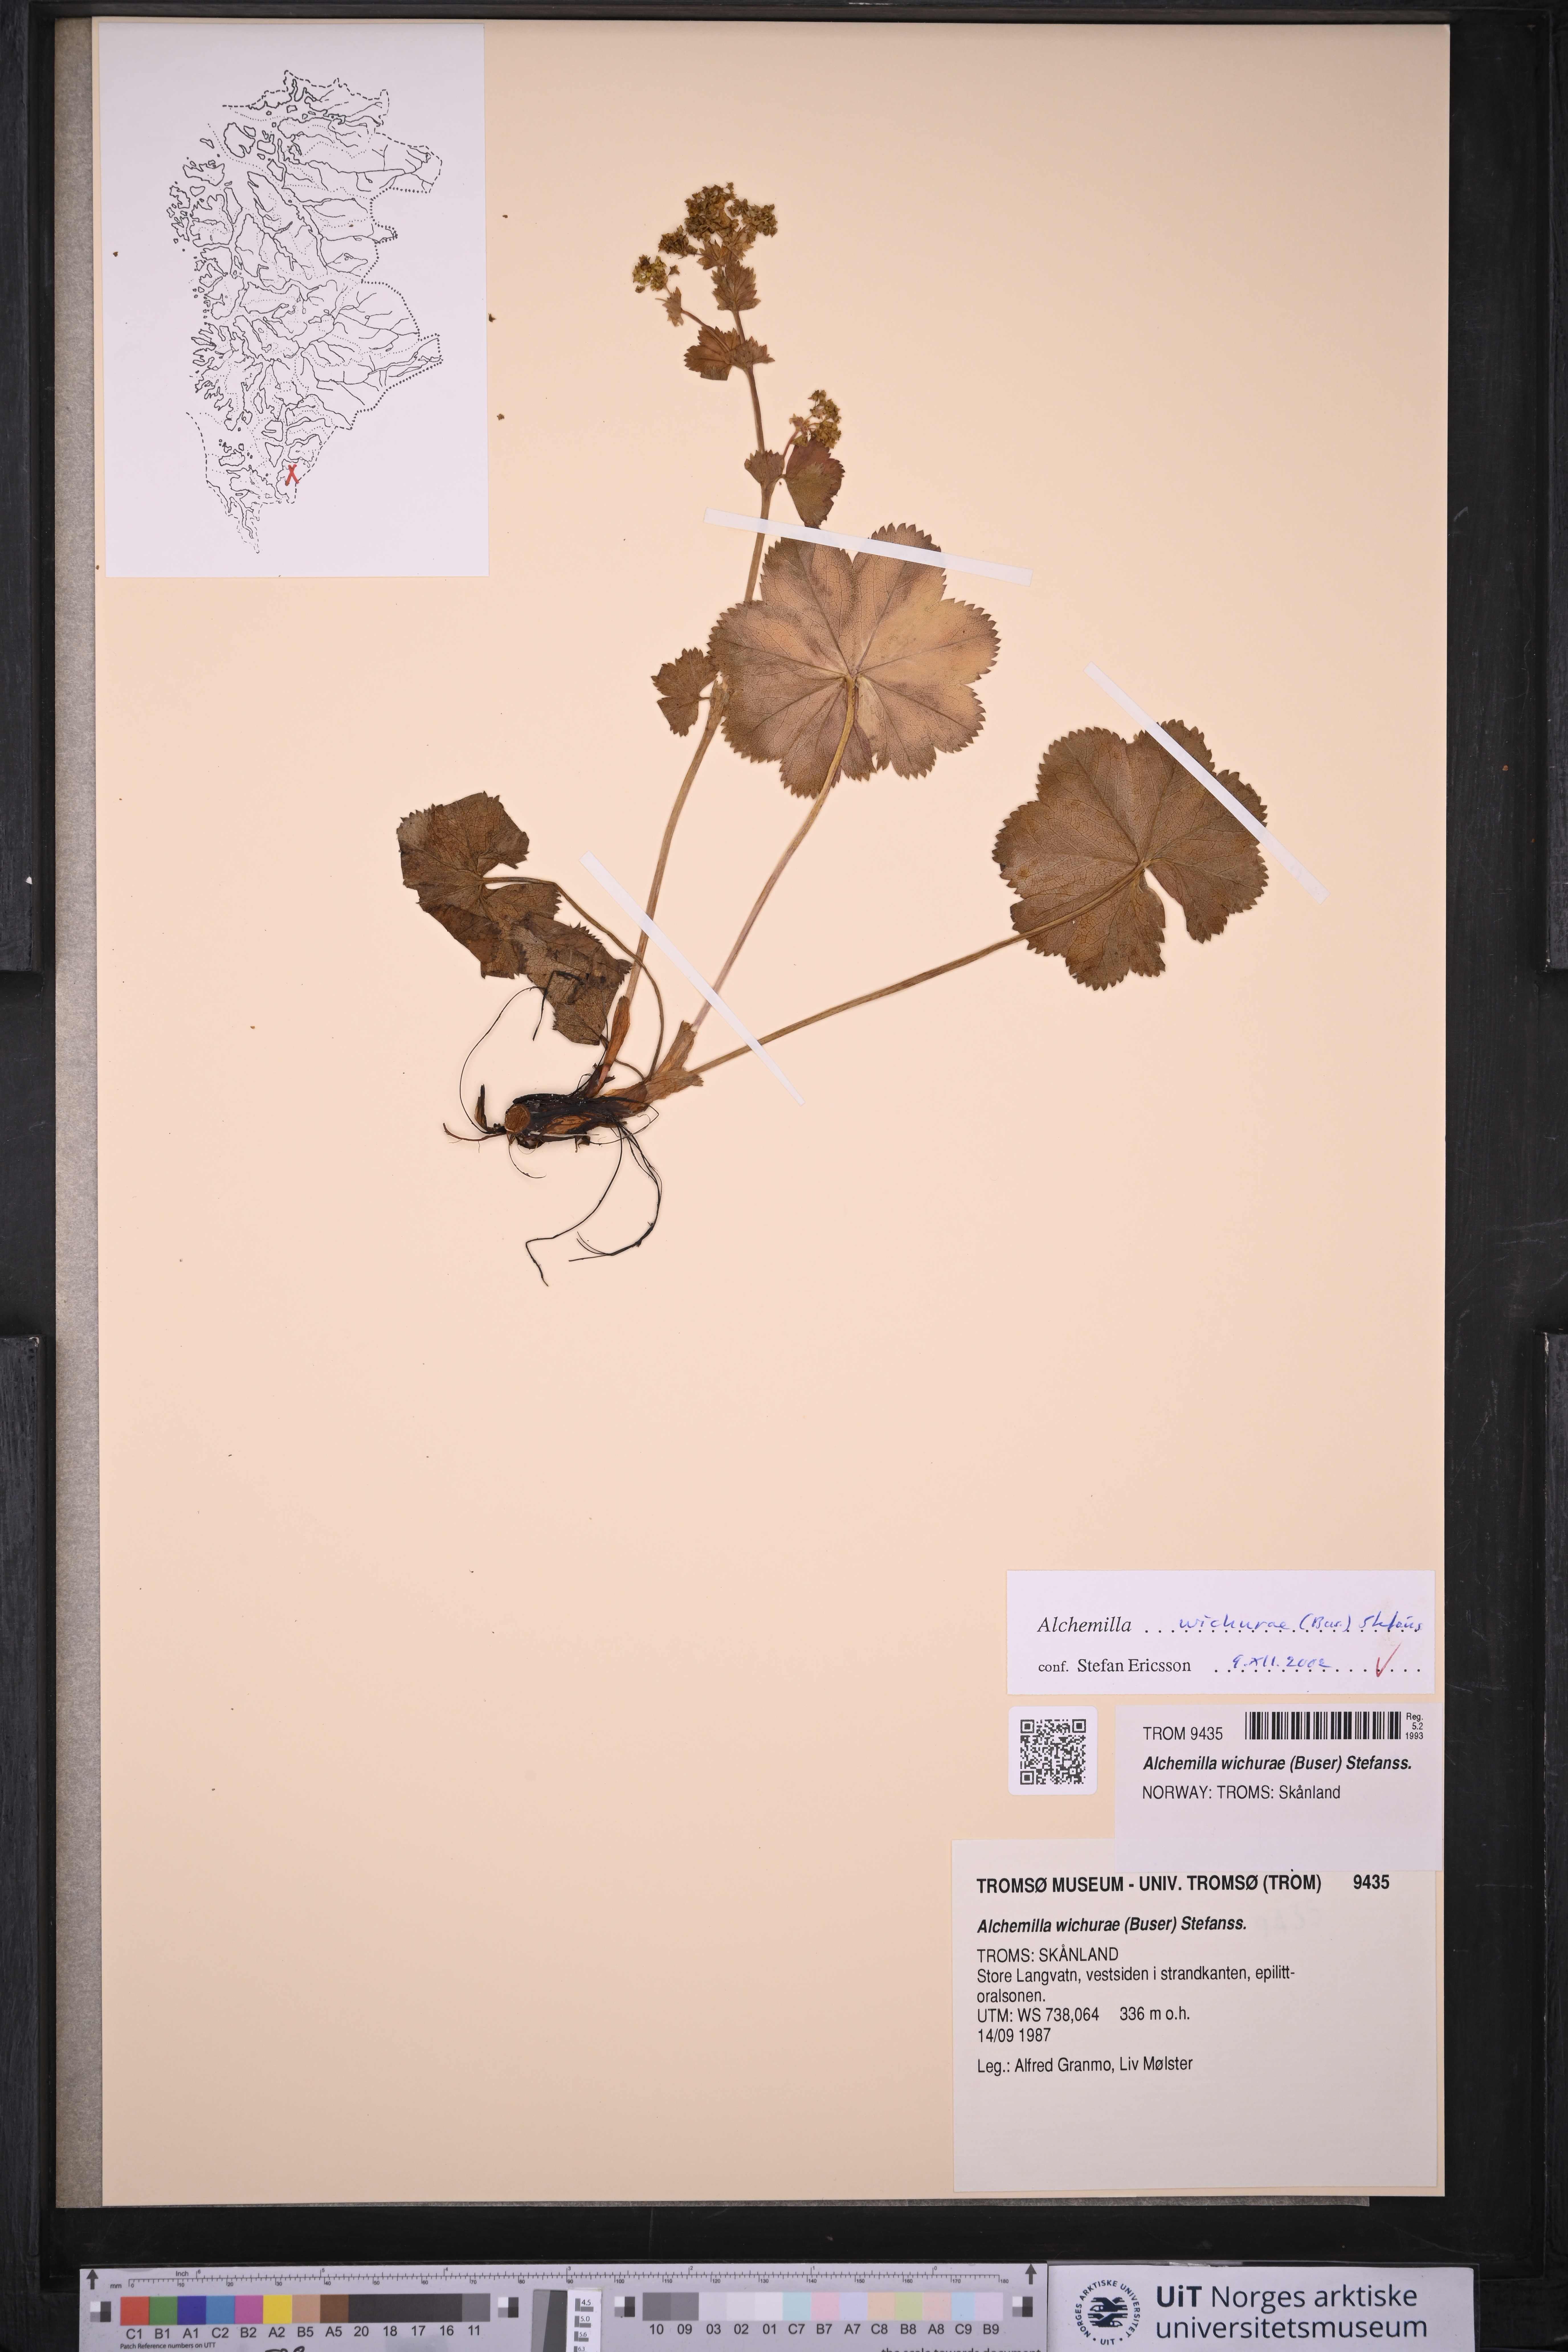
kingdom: Plantae
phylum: Tracheophyta
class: Magnoliopsida
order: Rosales
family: Rosaceae
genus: Alchemilla
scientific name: Alchemilla wichurae
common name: Rock lady's mantle
